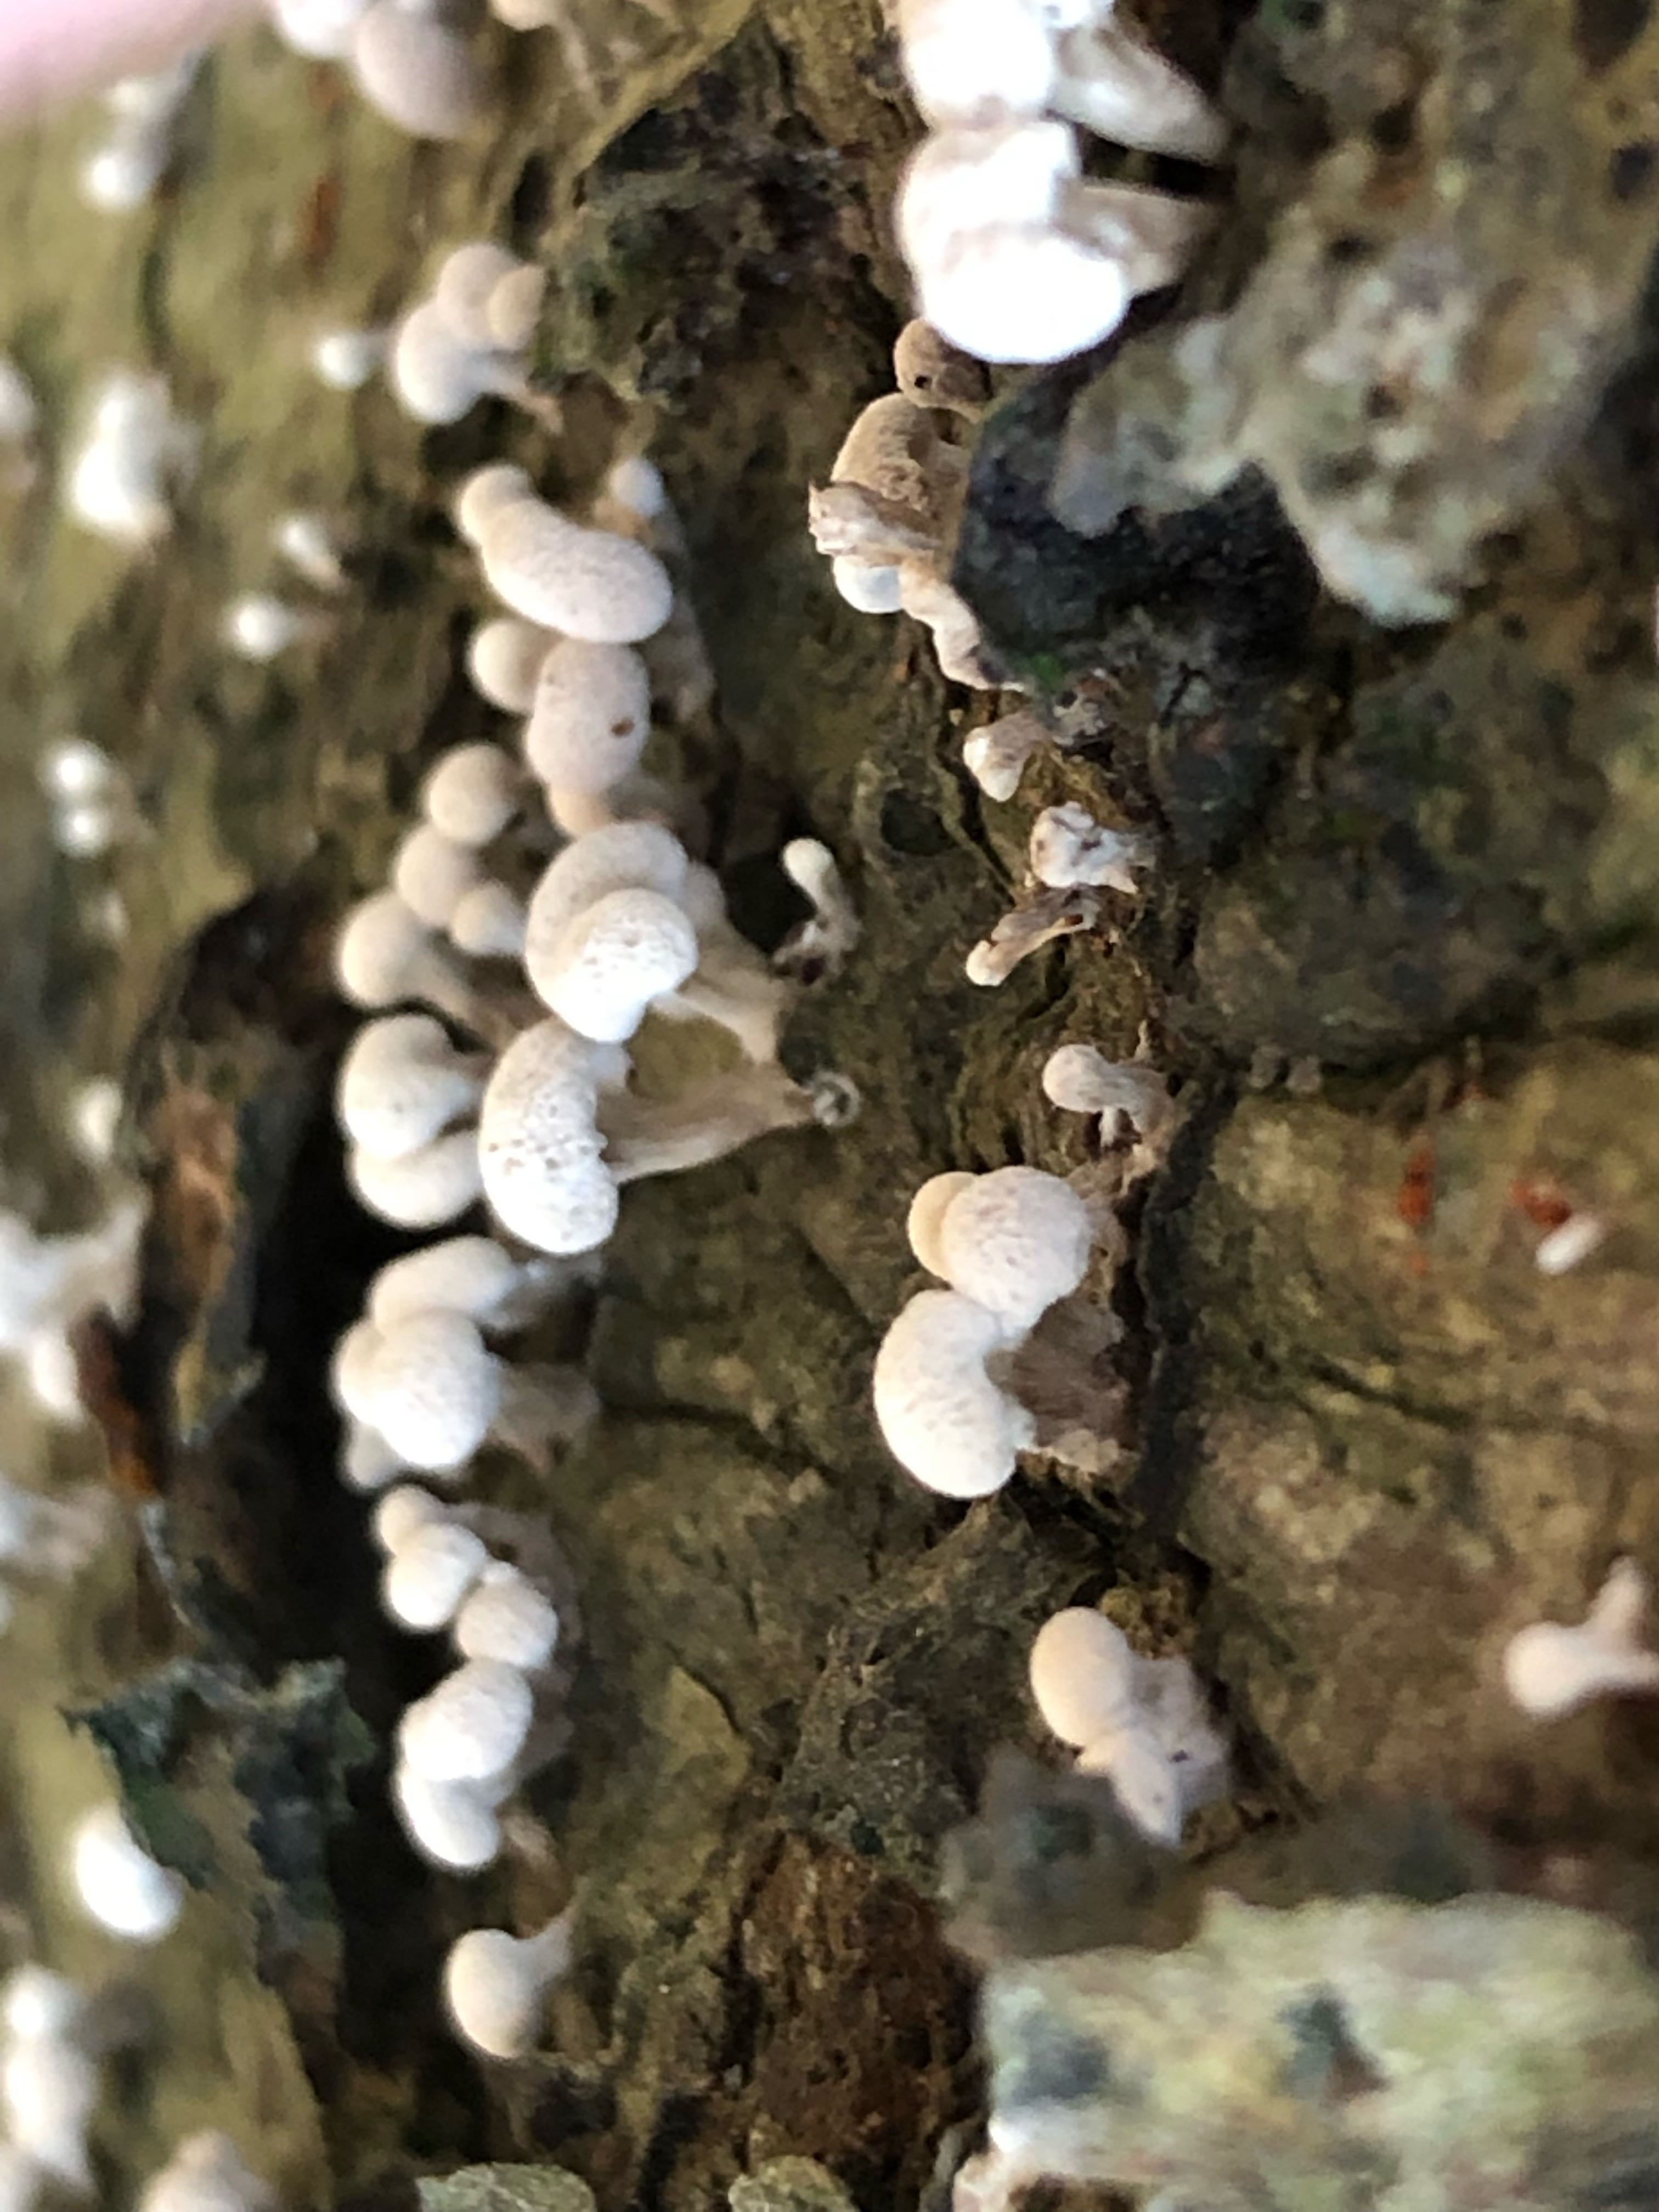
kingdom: Fungi
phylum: Basidiomycota
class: Atractiellomycetes
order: Atractiellales
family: Phleogenaceae
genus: Phleogena
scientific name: Phleogena faginea
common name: pudderkølle
